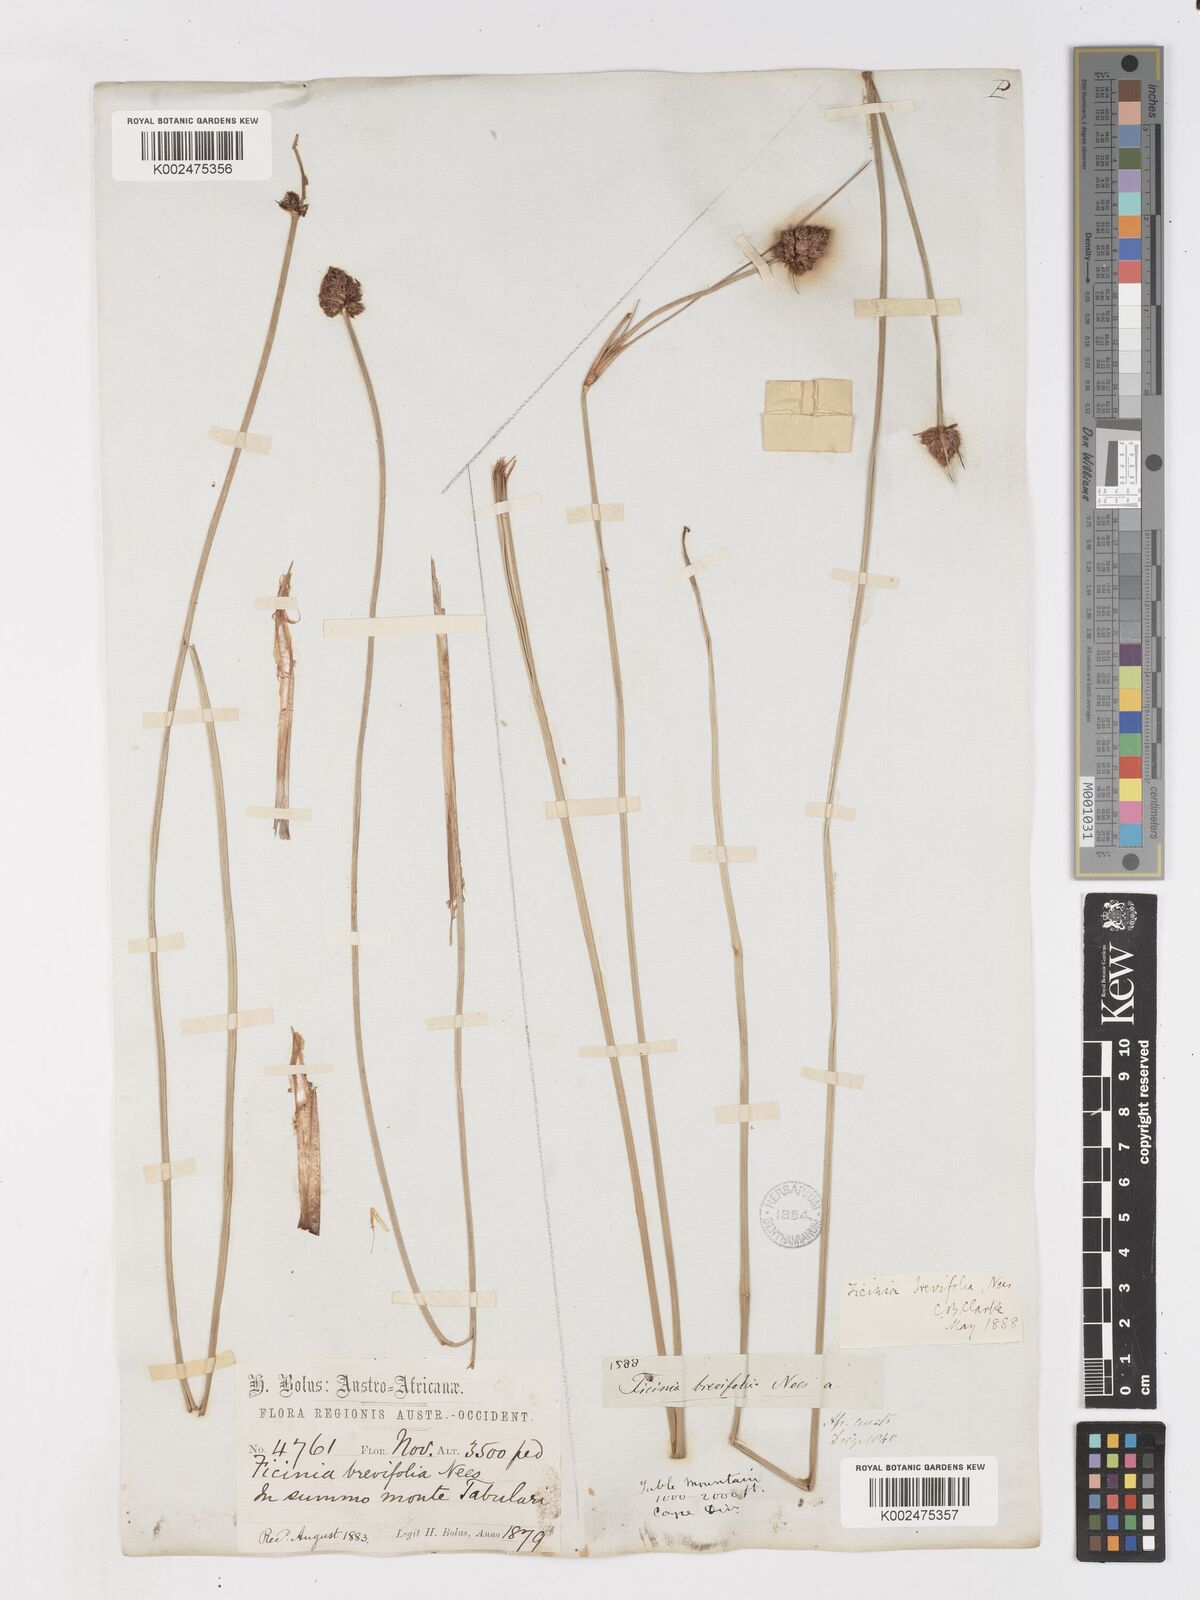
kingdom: Plantae
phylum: Tracheophyta
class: Liliopsida
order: Poales
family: Cyperaceae
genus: Ficinia
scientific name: Ficinia brevifolia
